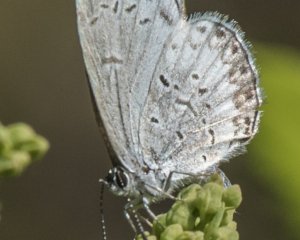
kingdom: Animalia
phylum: Arthropoda
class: Insecta
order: Lepidoptera
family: Lycaenidae
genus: Celastrina
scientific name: Celastrina
